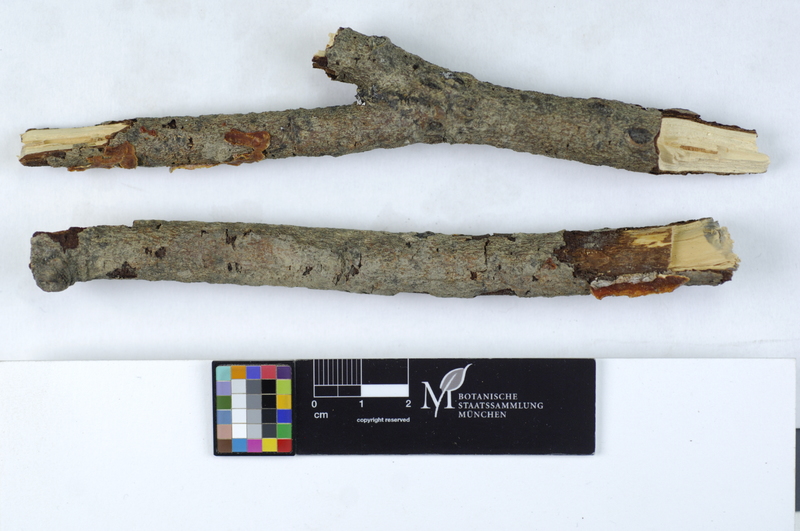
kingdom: Fungi
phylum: Basidiomycota
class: Agaricomycetes
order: Corticiales
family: Vuilleminiaceae
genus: Cytidia
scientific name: Cytidia salicina
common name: Scarlet splash
